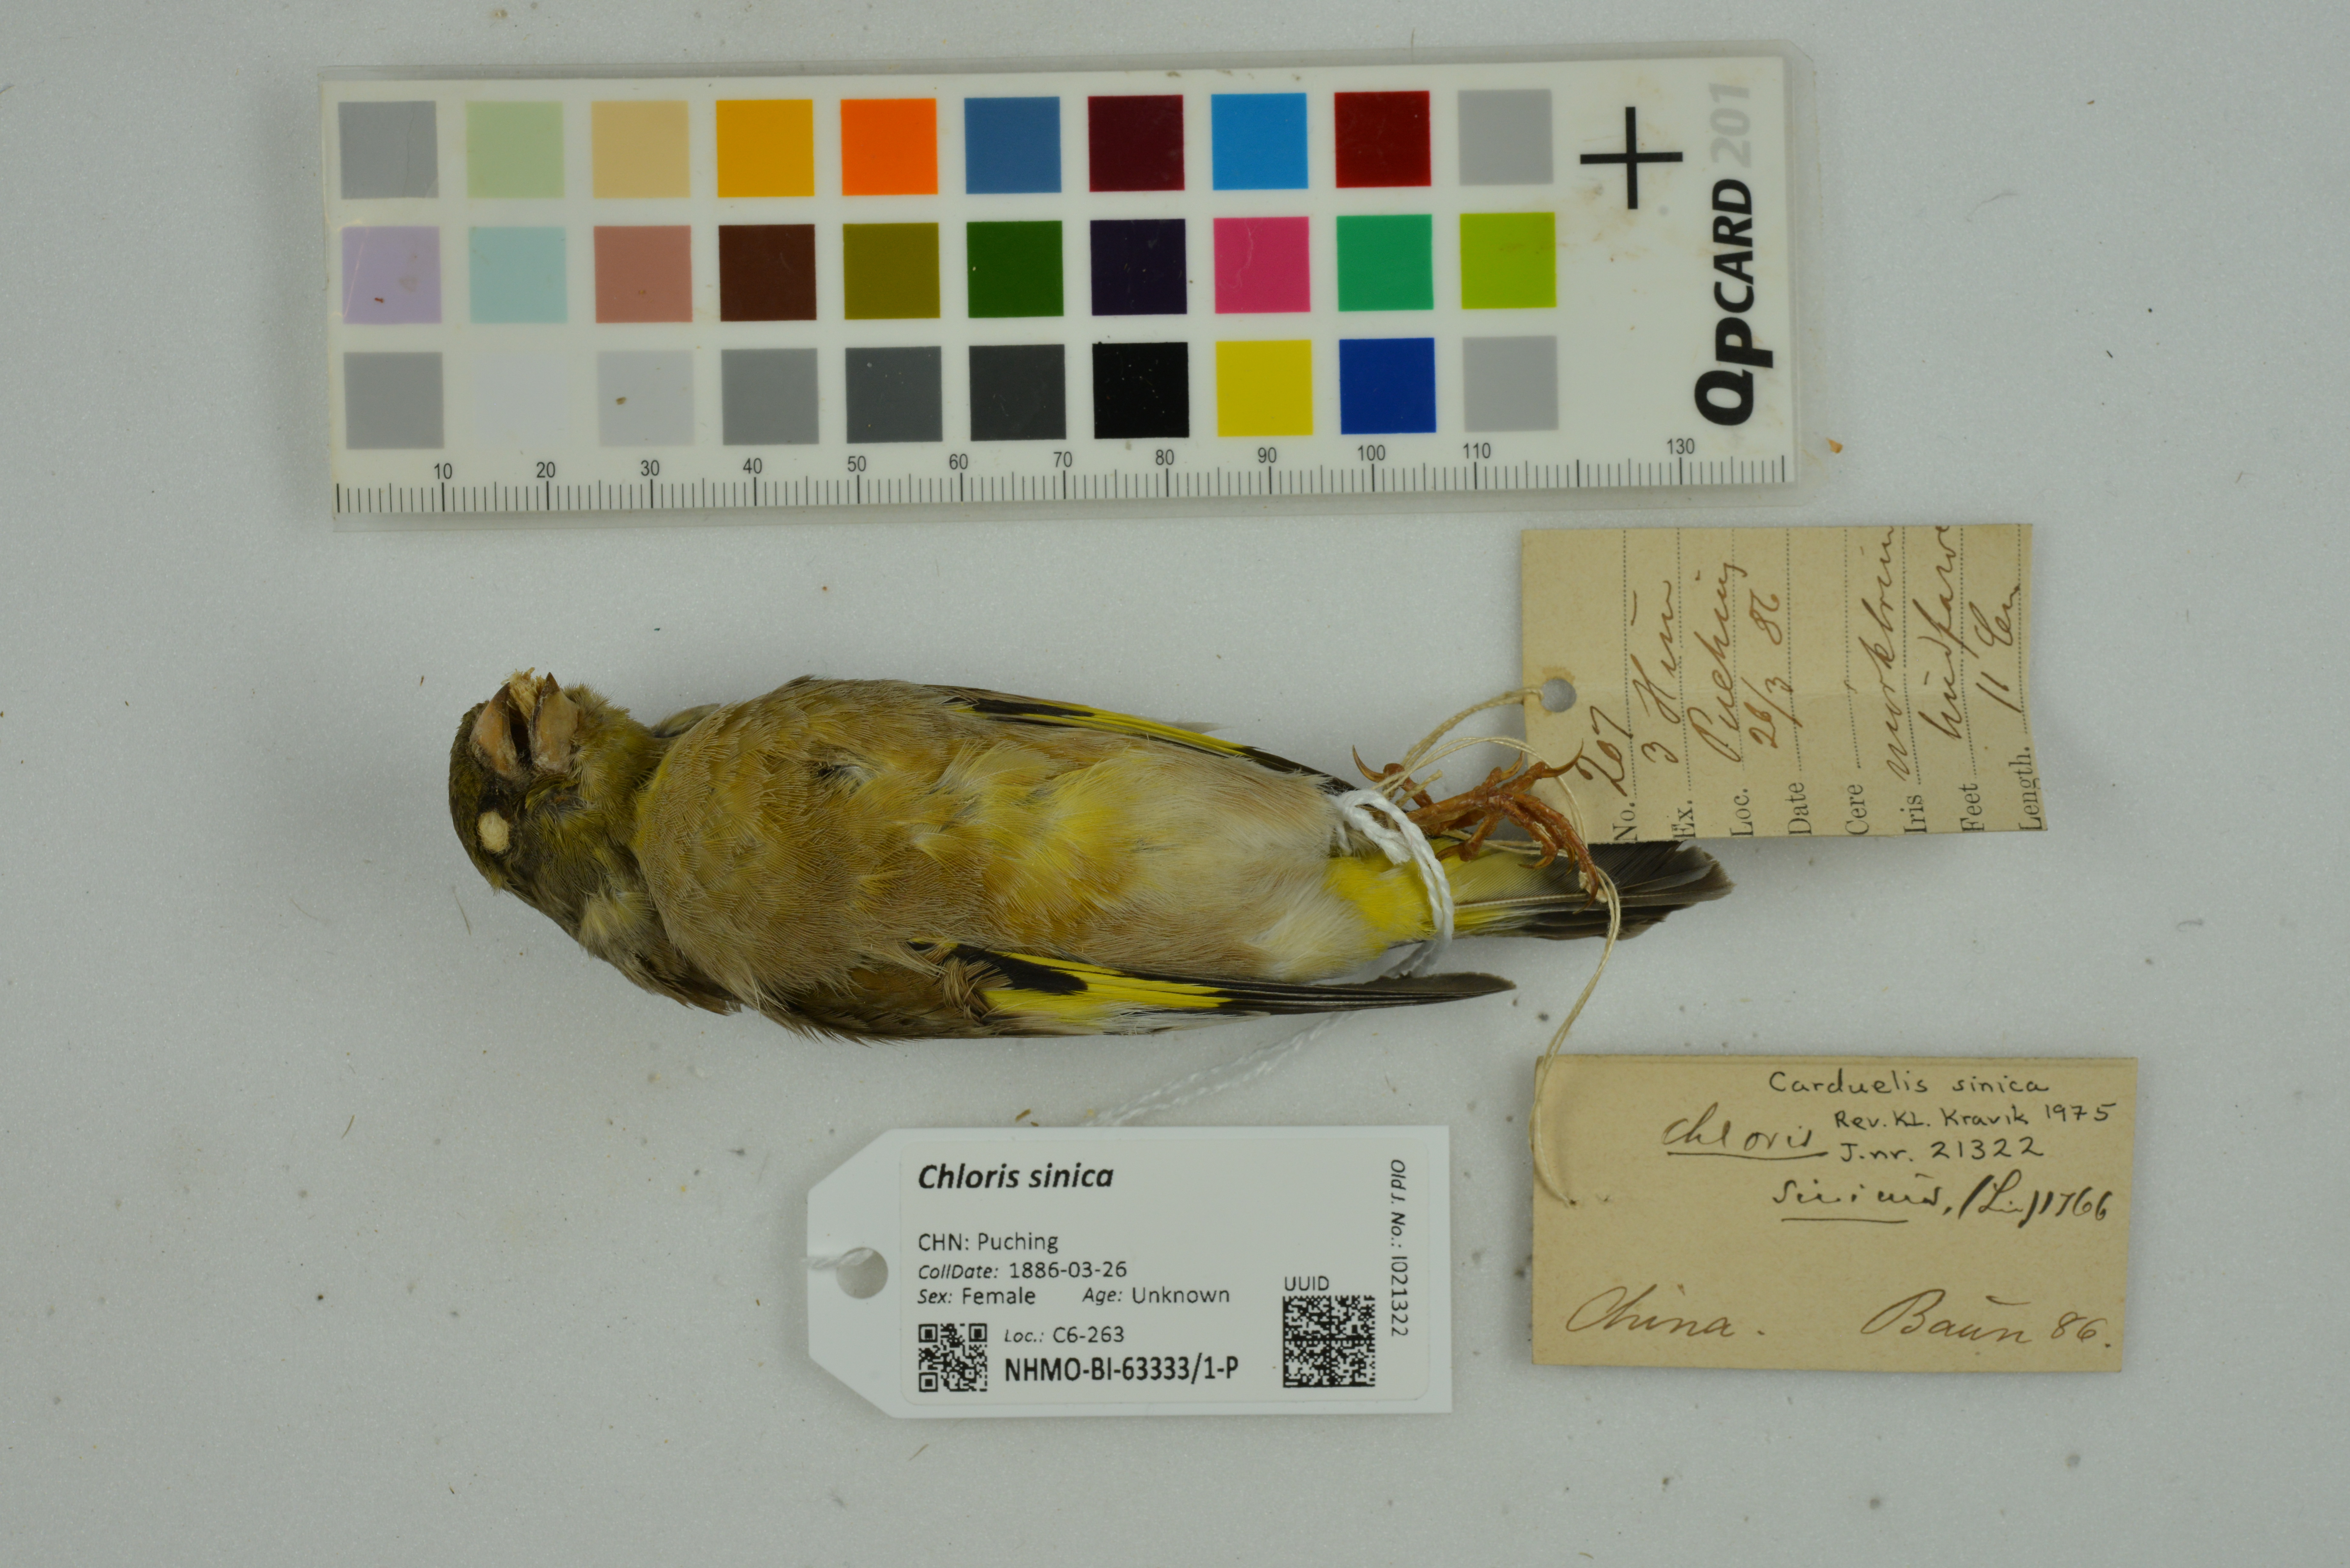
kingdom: Plantae
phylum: Tracheophyta
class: Liliopsida
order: Poales
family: Poaceae
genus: Chloris
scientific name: Chloris sinica
